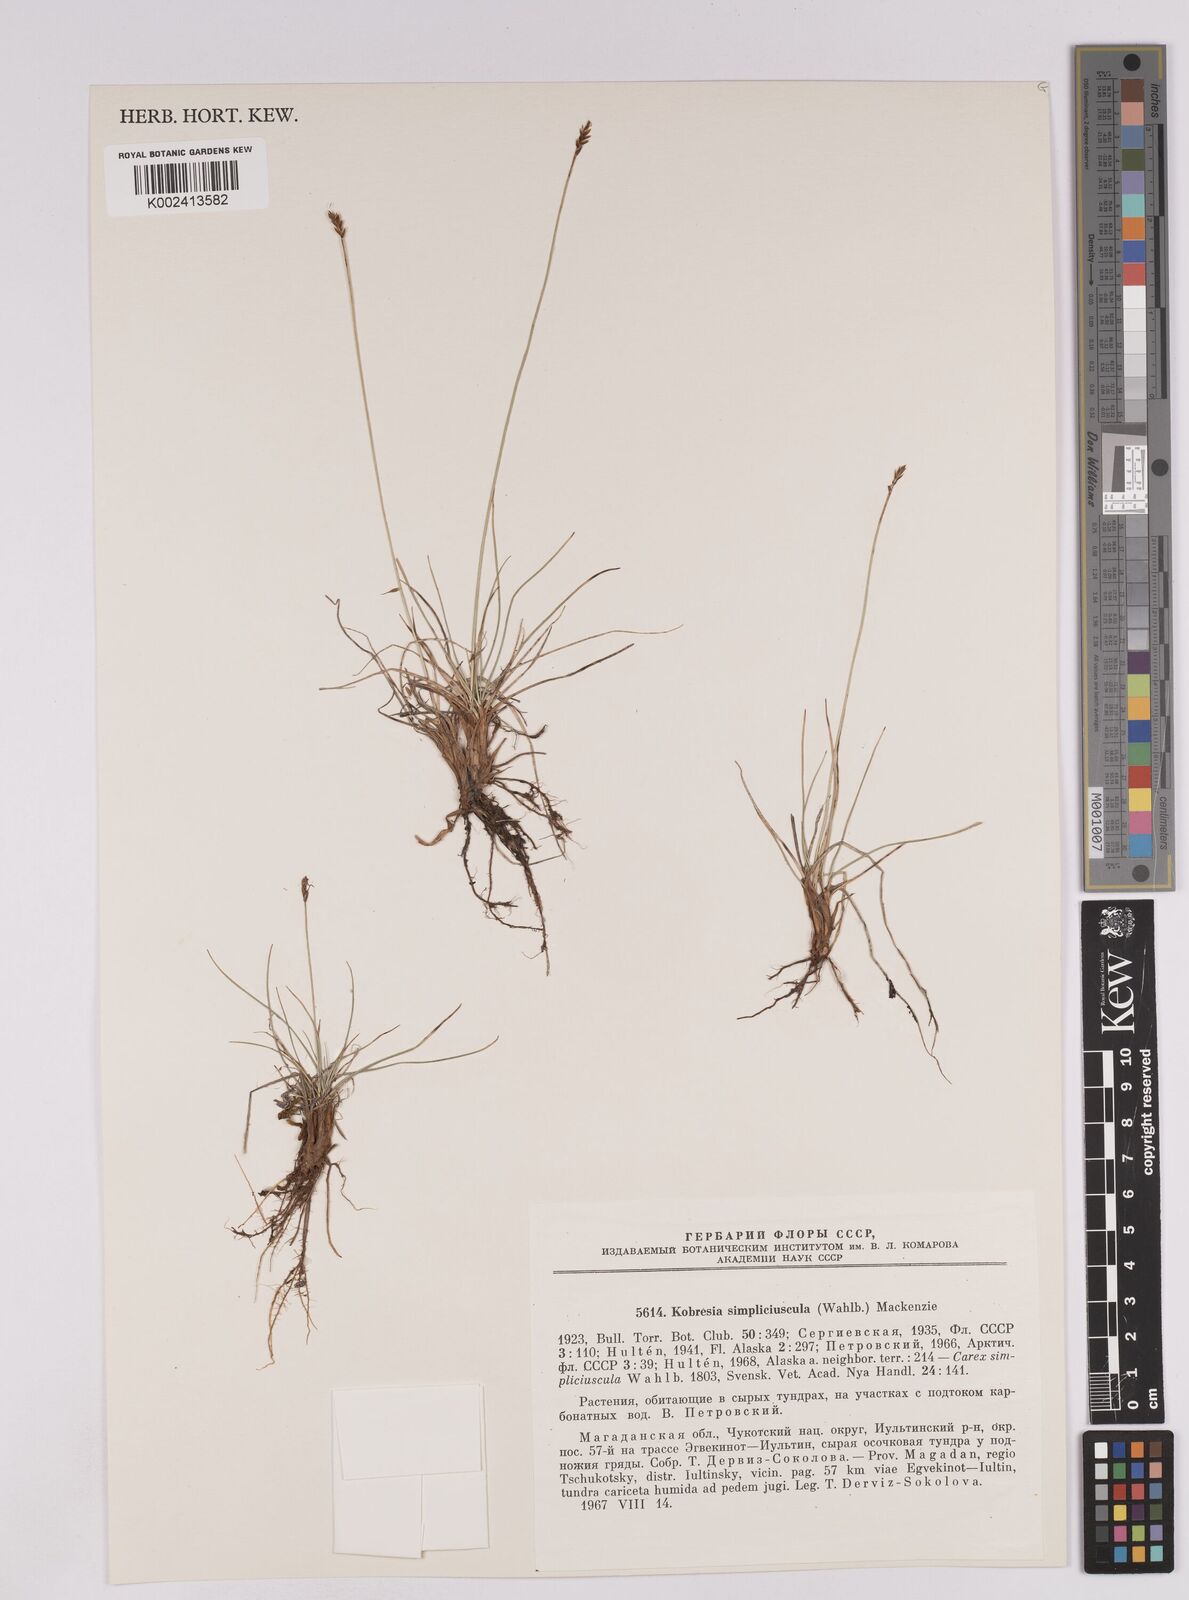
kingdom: Plantae
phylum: Tracheophyta
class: Liliopsida
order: Poales
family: Cyperaceae
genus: Carex
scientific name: Carex simpliciuscula
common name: Simple bog sedge
